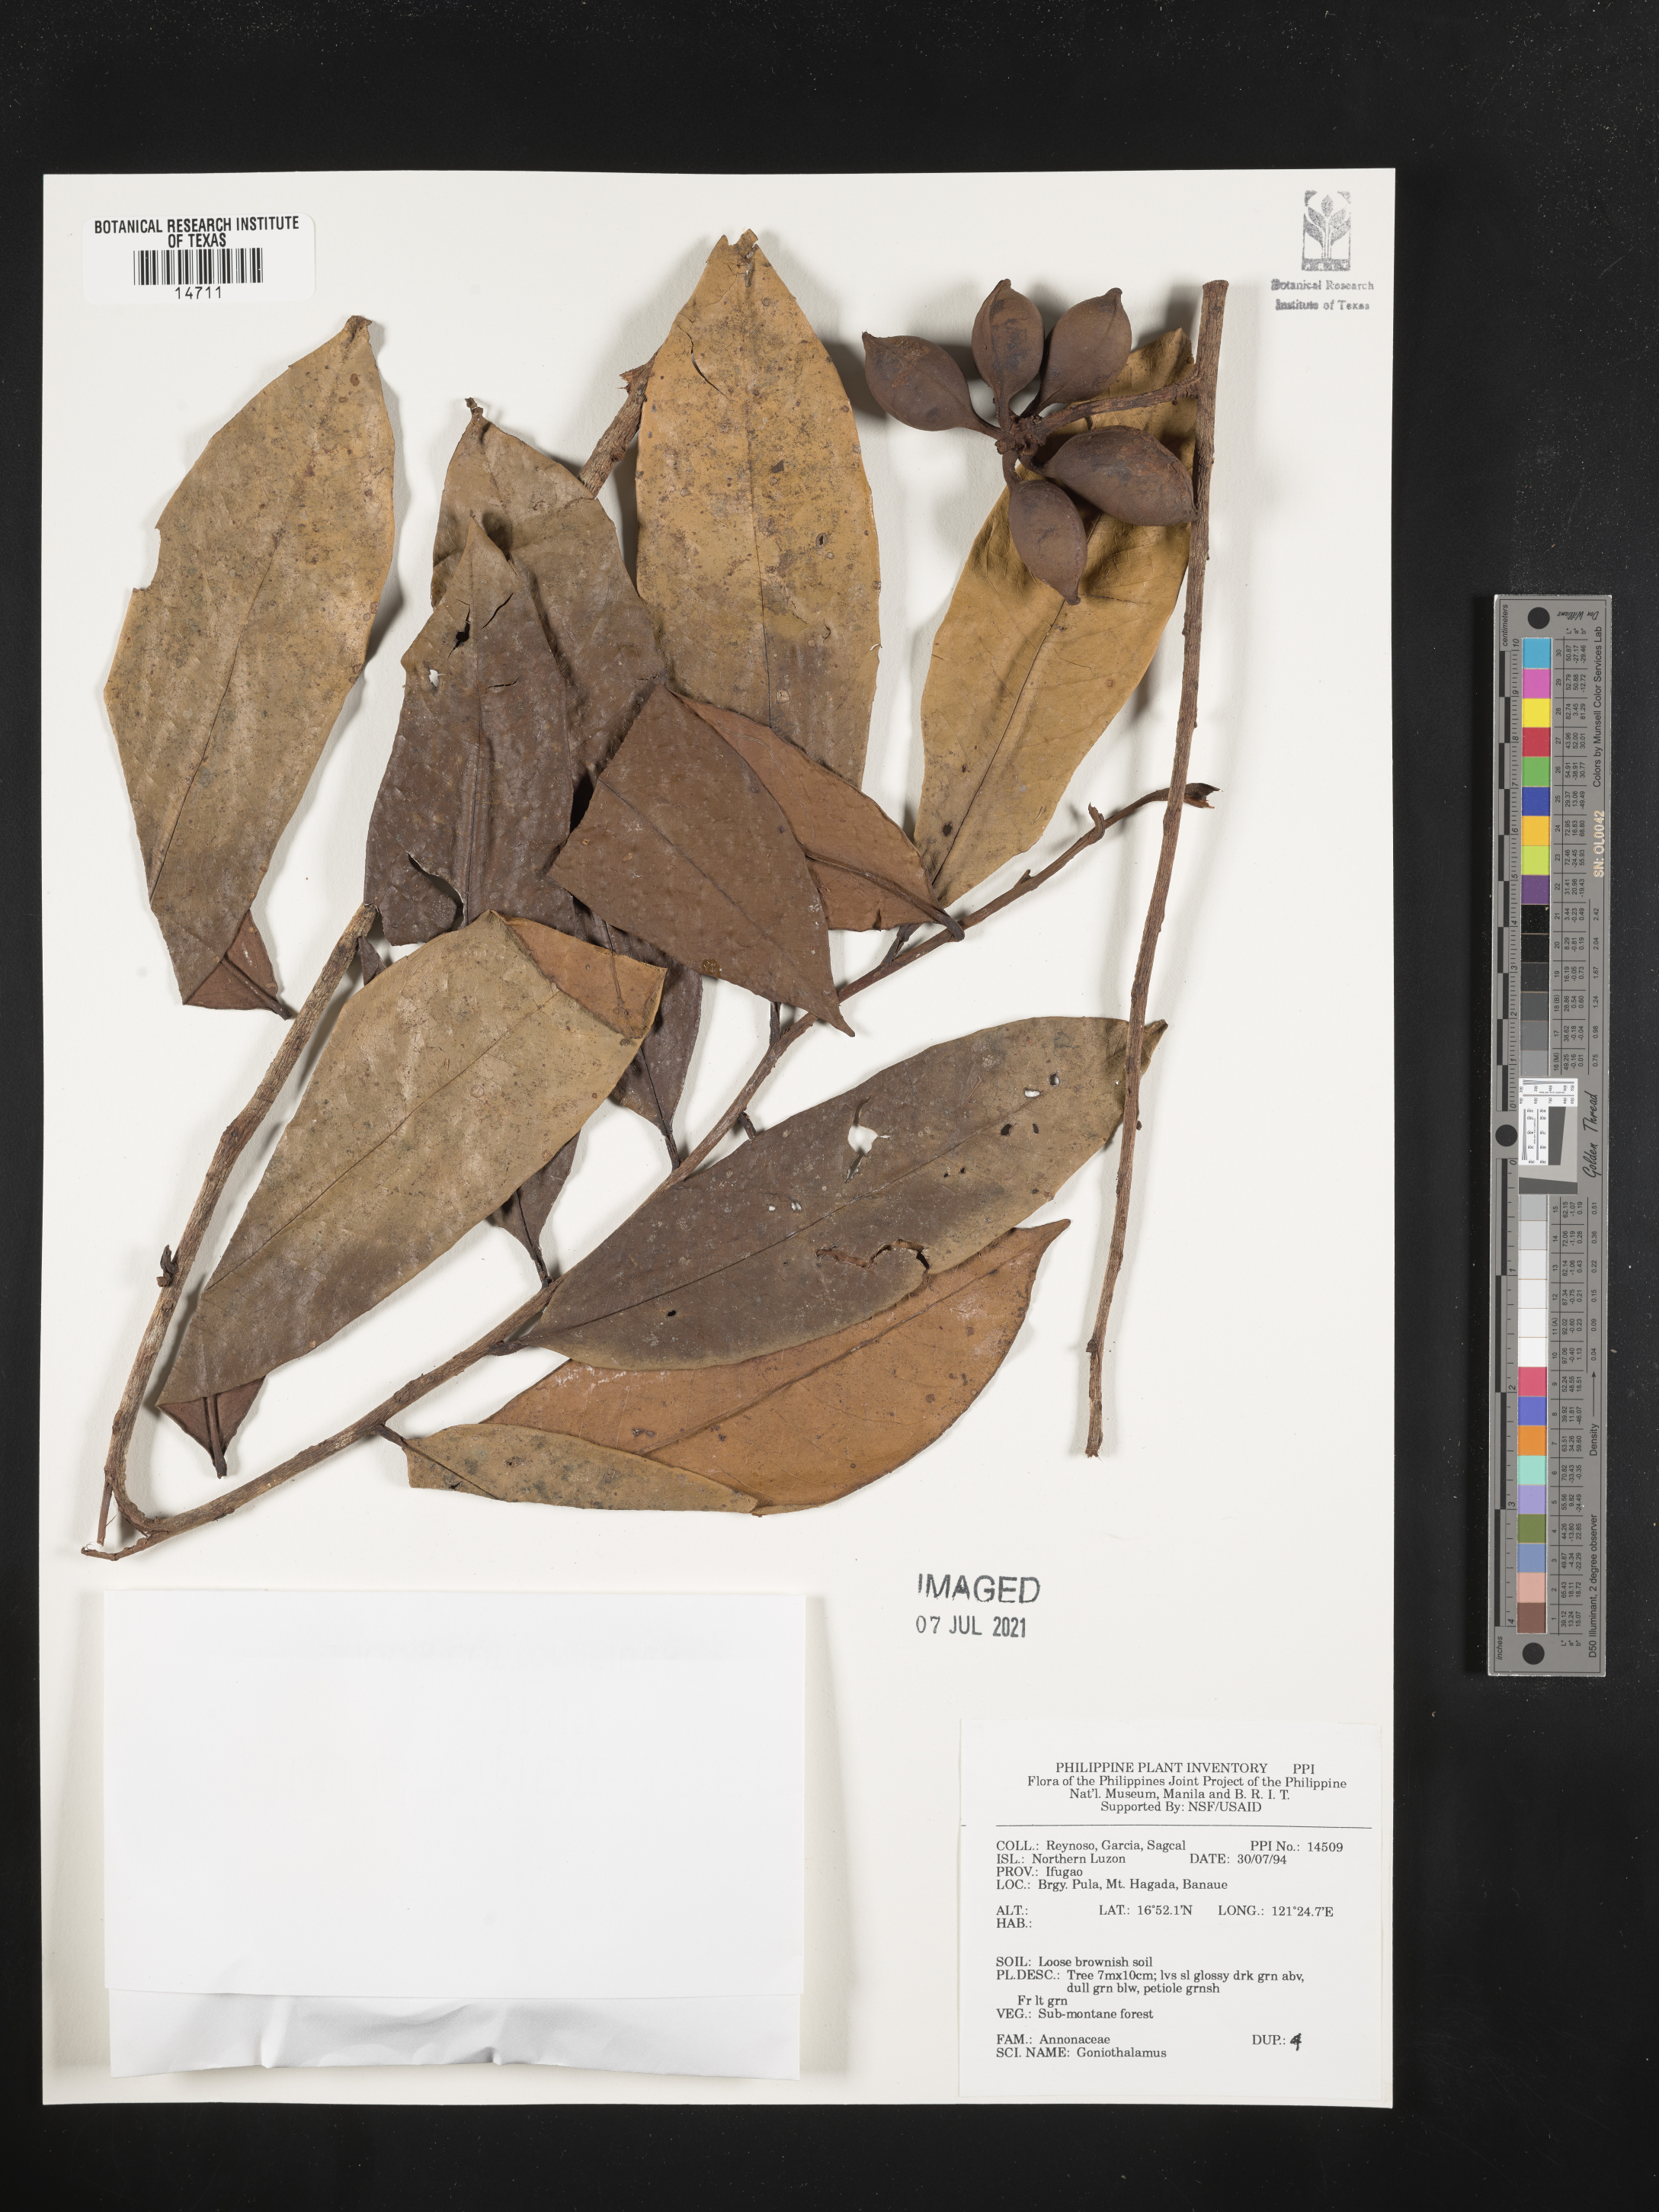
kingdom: Plantae
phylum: Tracheophyta
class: Magnoliopsida
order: Magnoliales
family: Annonaceae
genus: Goniothalamus
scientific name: Goniothalamus
